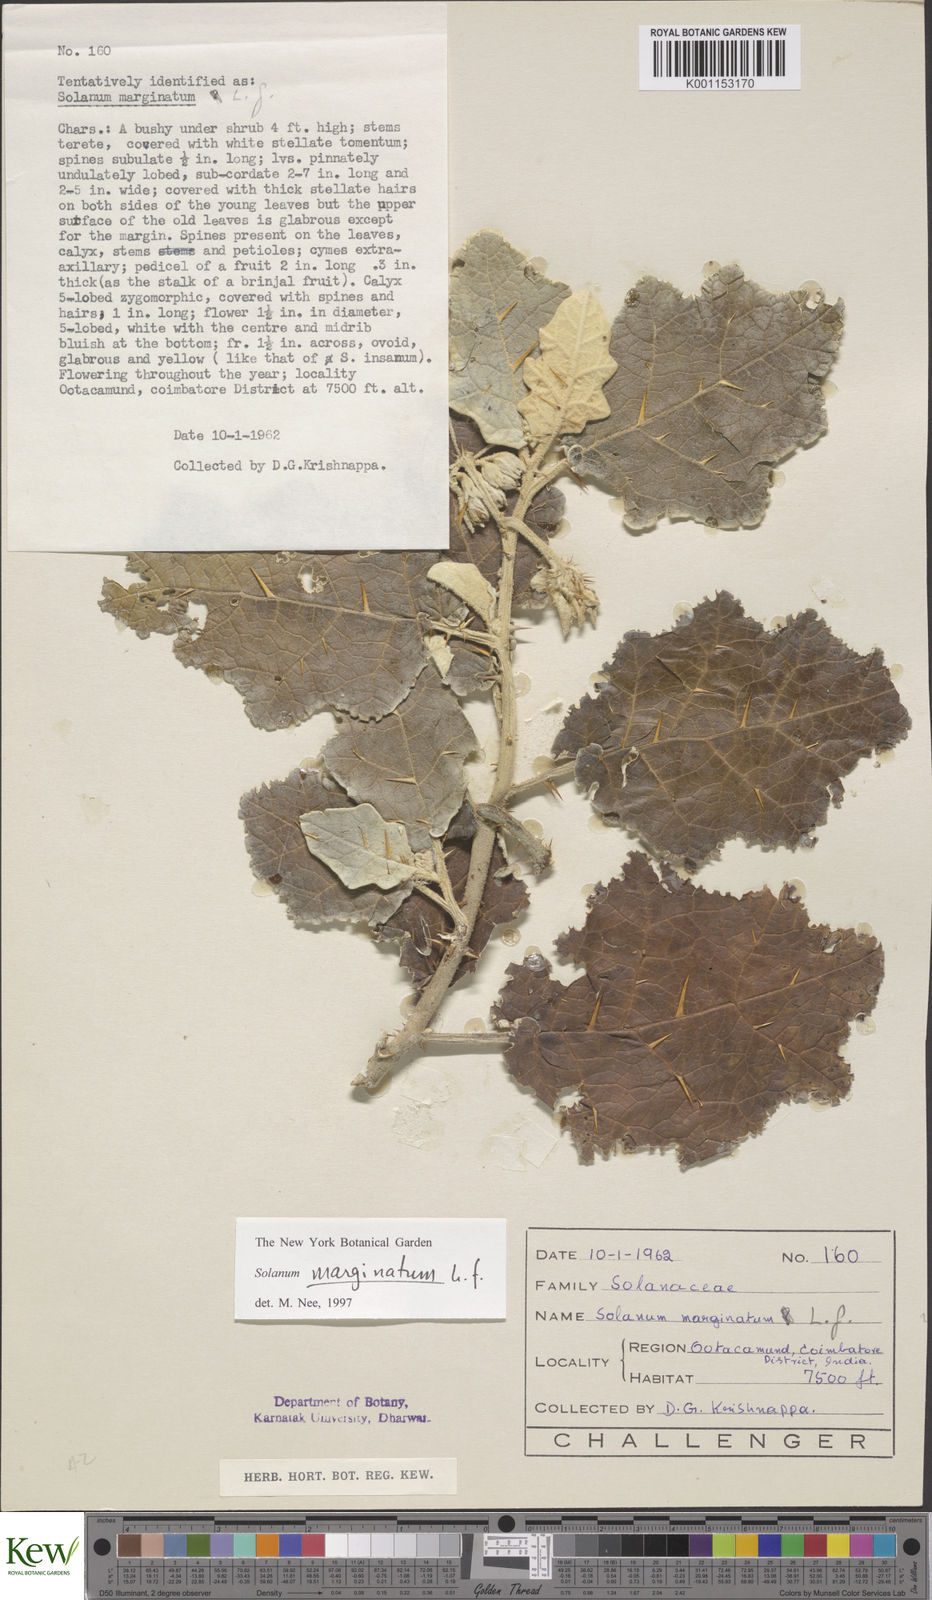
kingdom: Plantae
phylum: Tracheophyta
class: Magnoliopsida
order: Solanales
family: Solanaceae
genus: Solanum
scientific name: Solanum marginatum
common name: Purple african nightshade
